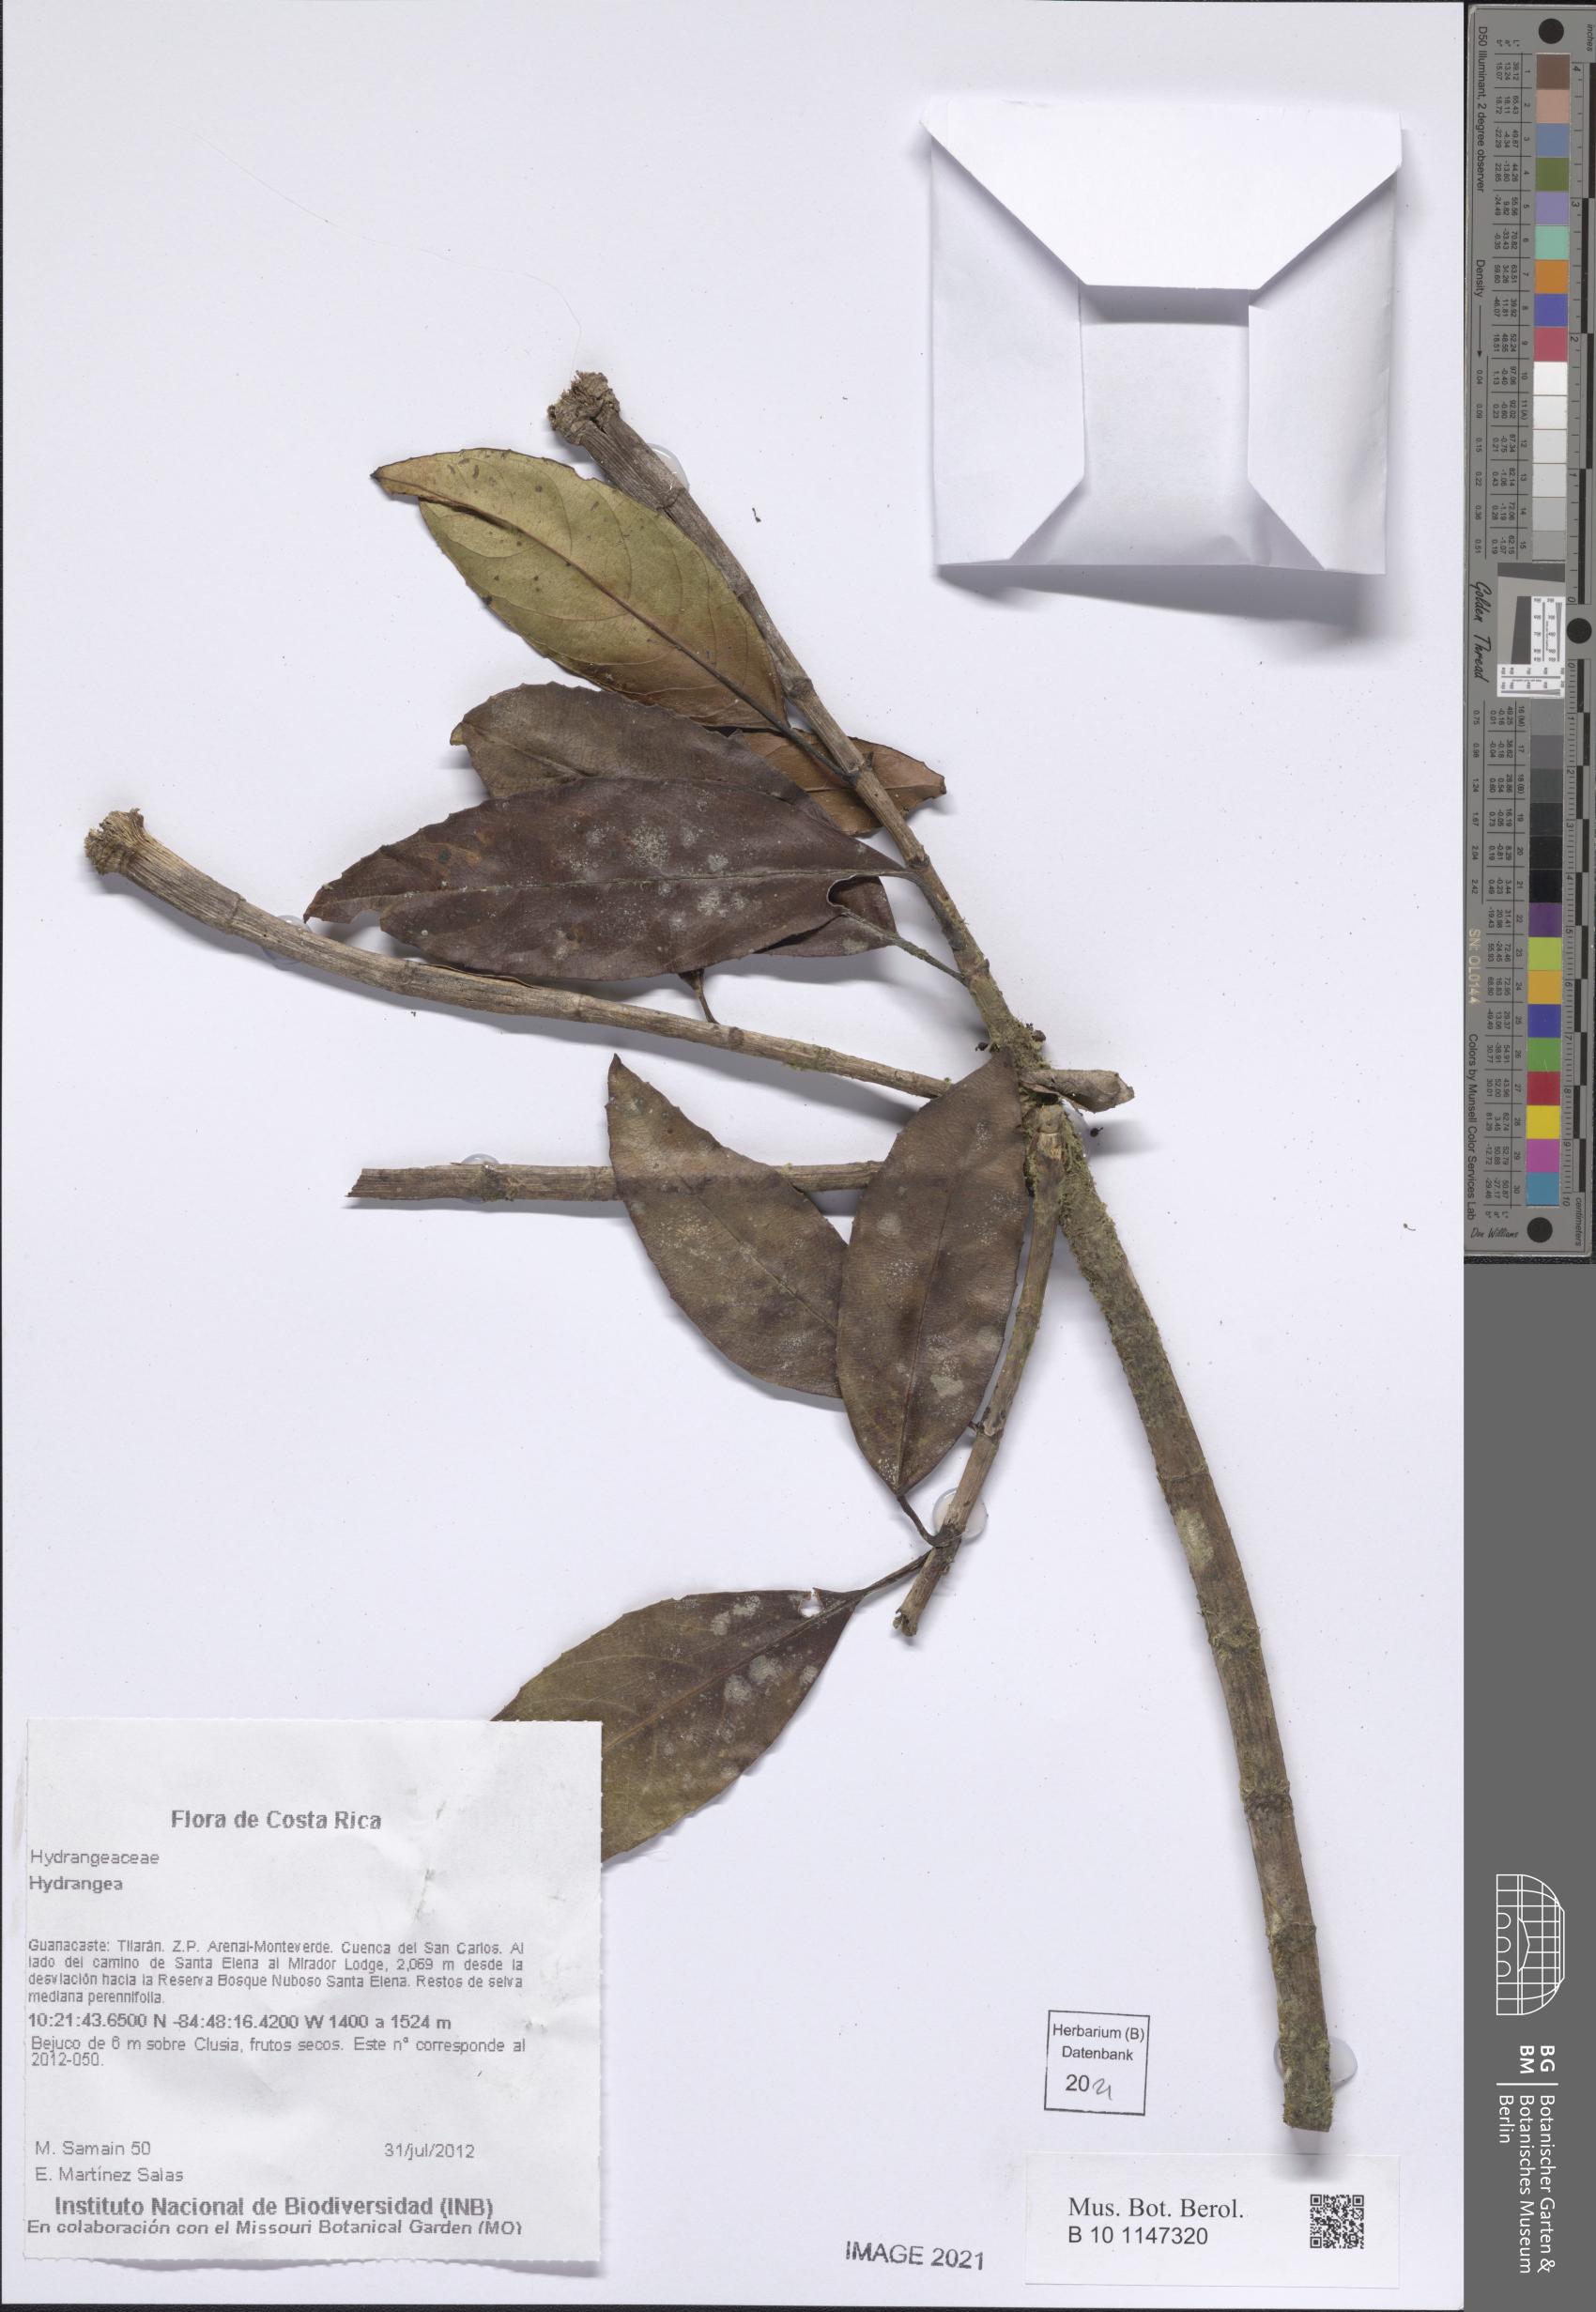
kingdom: Plantae
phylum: Tracheophyta
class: Magnoliopsida
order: Cornales
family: Hydrangeaceae
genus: Hydrangea
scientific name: Hydrangea
